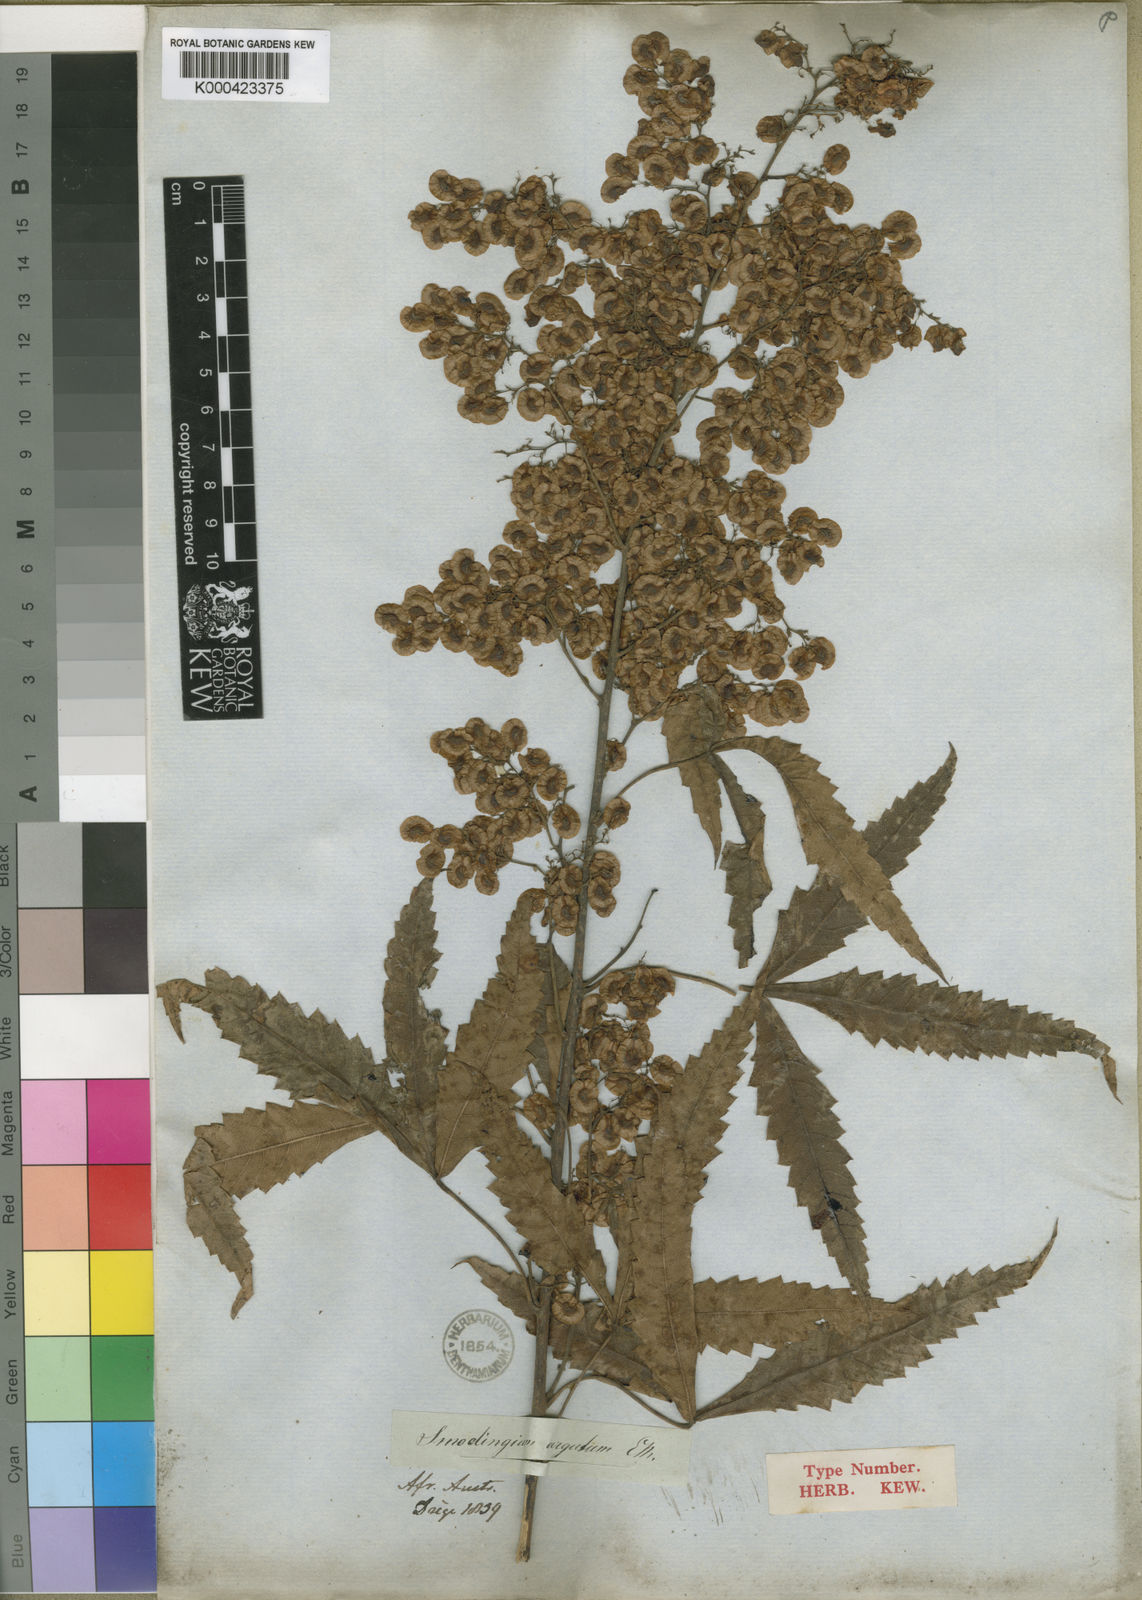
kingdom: Plantae
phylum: Tracheophyta
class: Magnoliopsida
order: Sapindales
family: Anacardiaceae
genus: Smodingium
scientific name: Smodingium argutum
